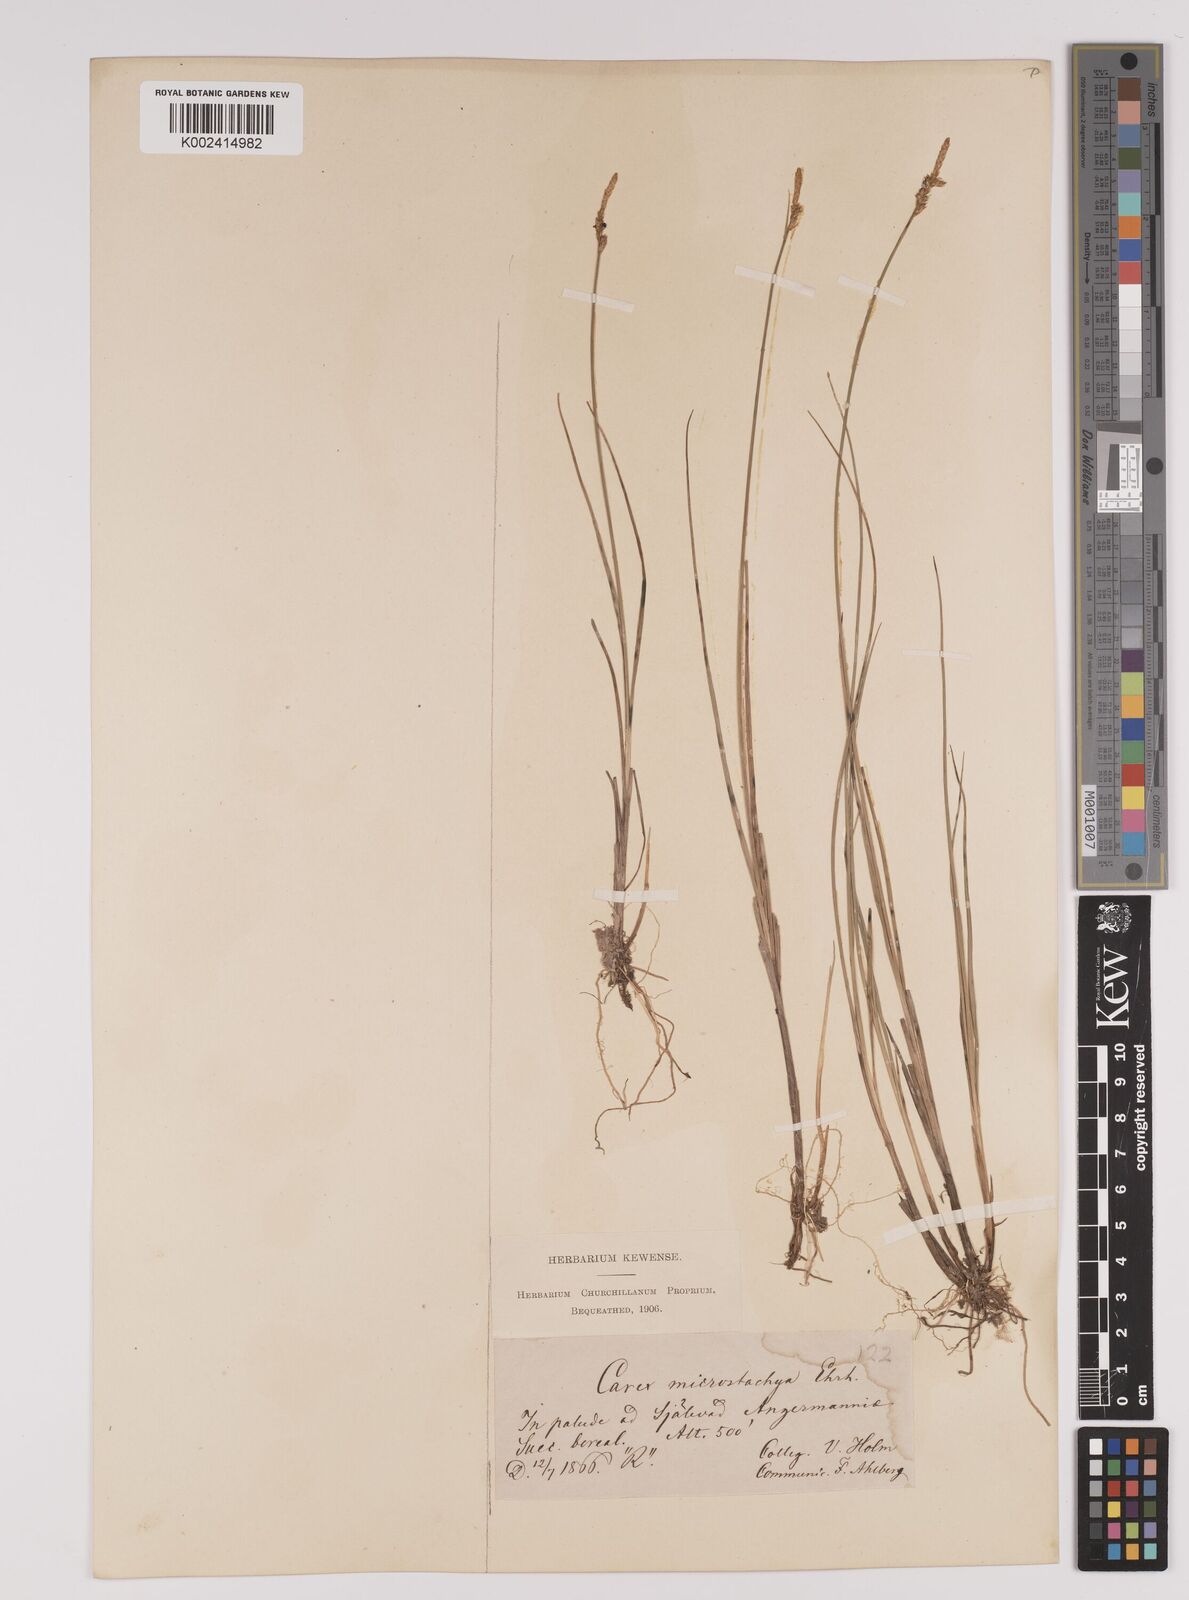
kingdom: Plantae
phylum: Tracheophyta
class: Liliopsida
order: Poales
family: Cyperaceae
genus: Carex
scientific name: Carex dioica
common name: Dioecious sedge
